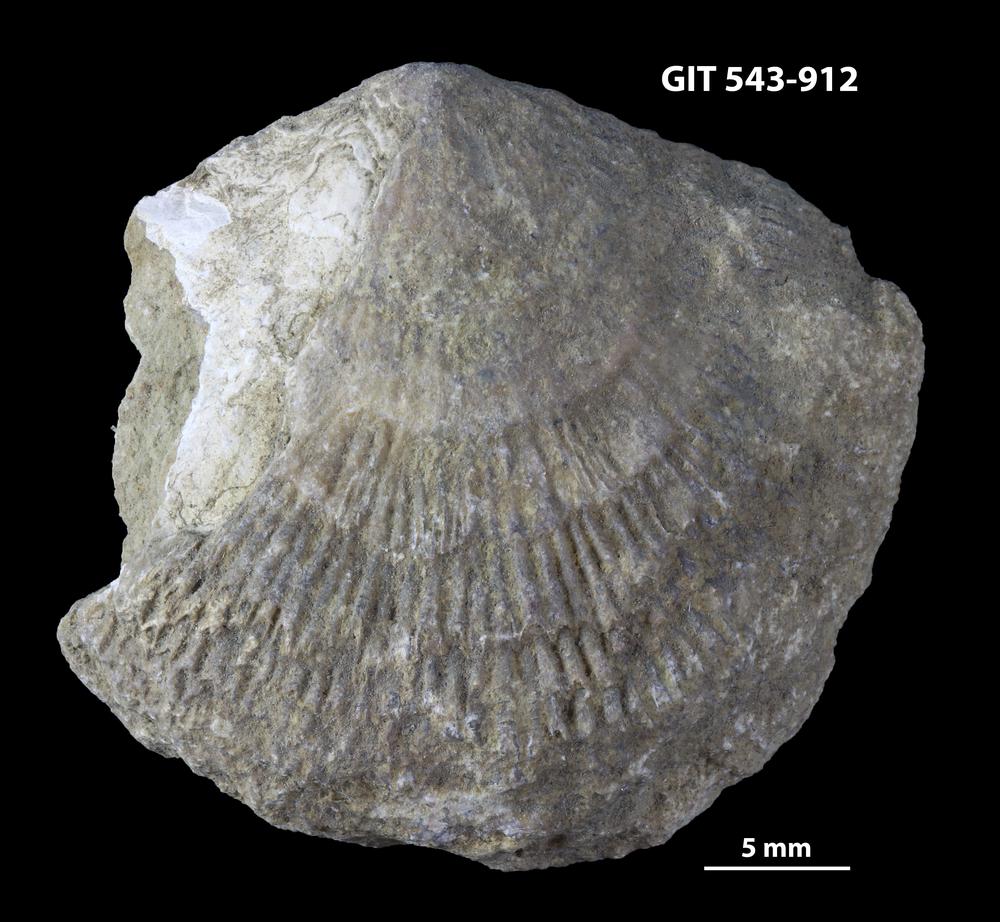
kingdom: Animalia
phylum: Brachiopoda
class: Rhynchonellata
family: Clitambonitidae
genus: Clitambonites
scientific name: Clitambonites Orthisina schmidti
